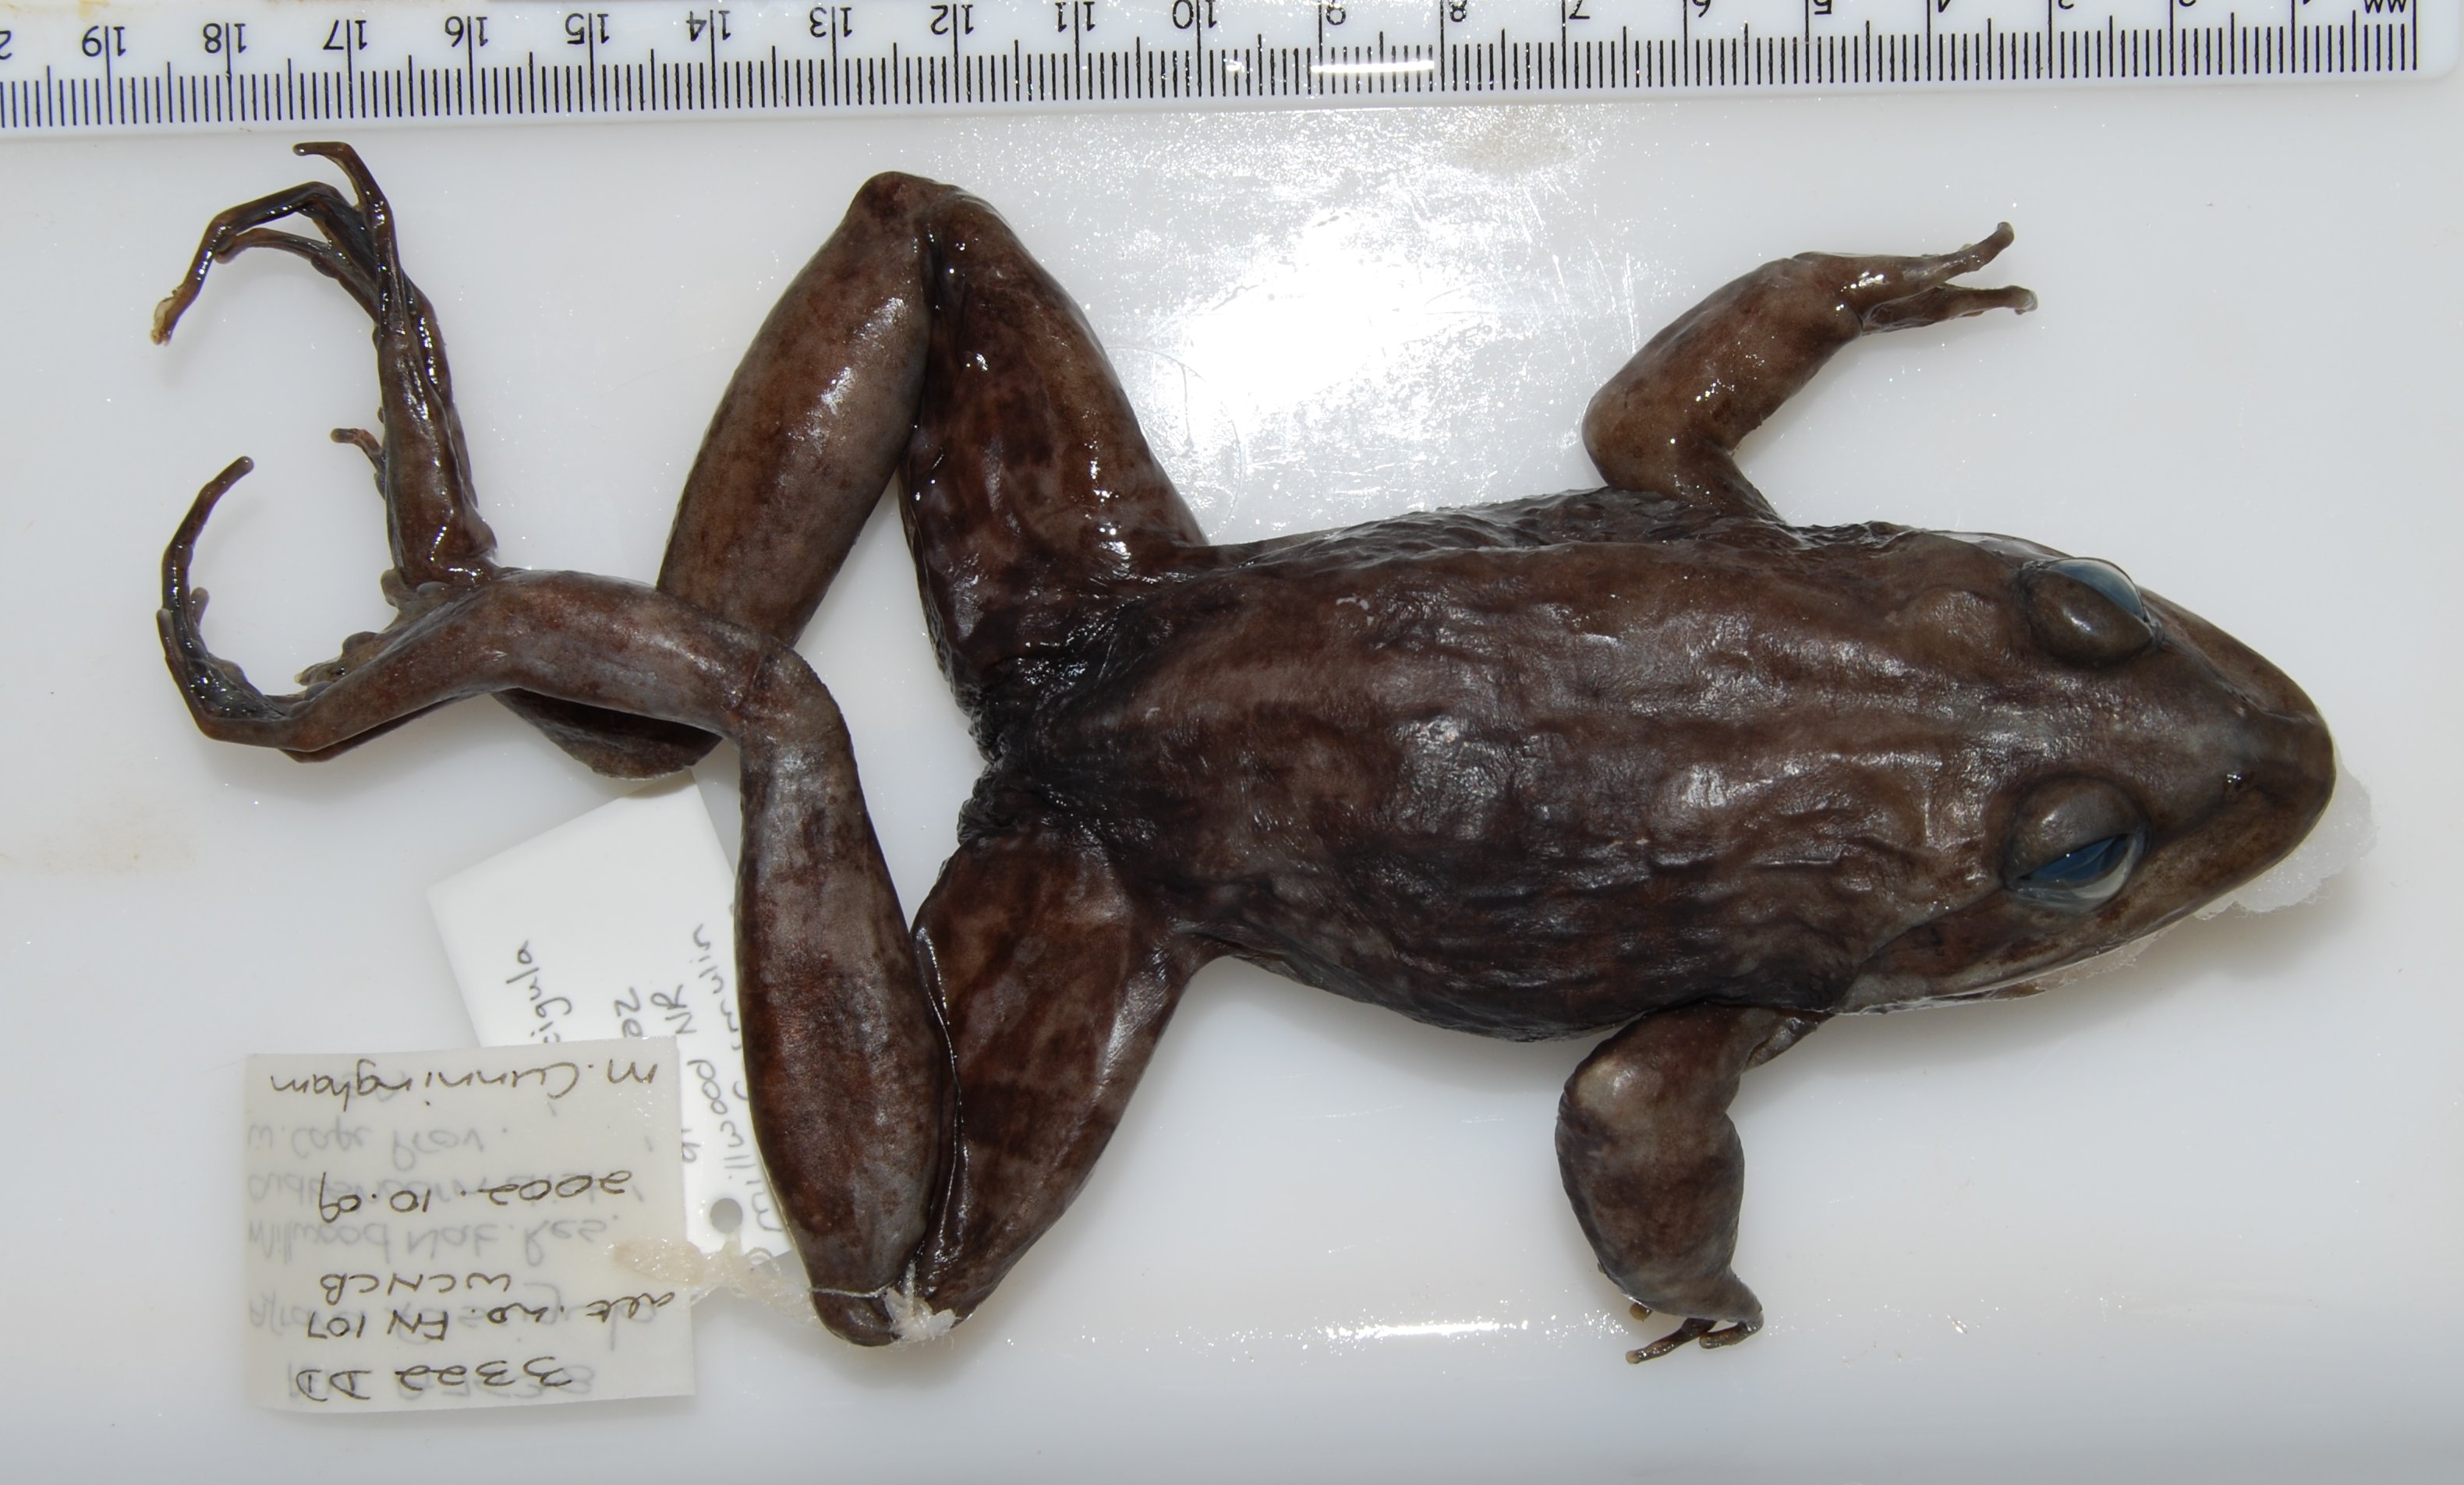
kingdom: Animalia
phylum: Chordata
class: Amphibia
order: Anura
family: Pyxicephalidae
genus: Amietia
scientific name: Amietia fuscigula
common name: Cape rana
